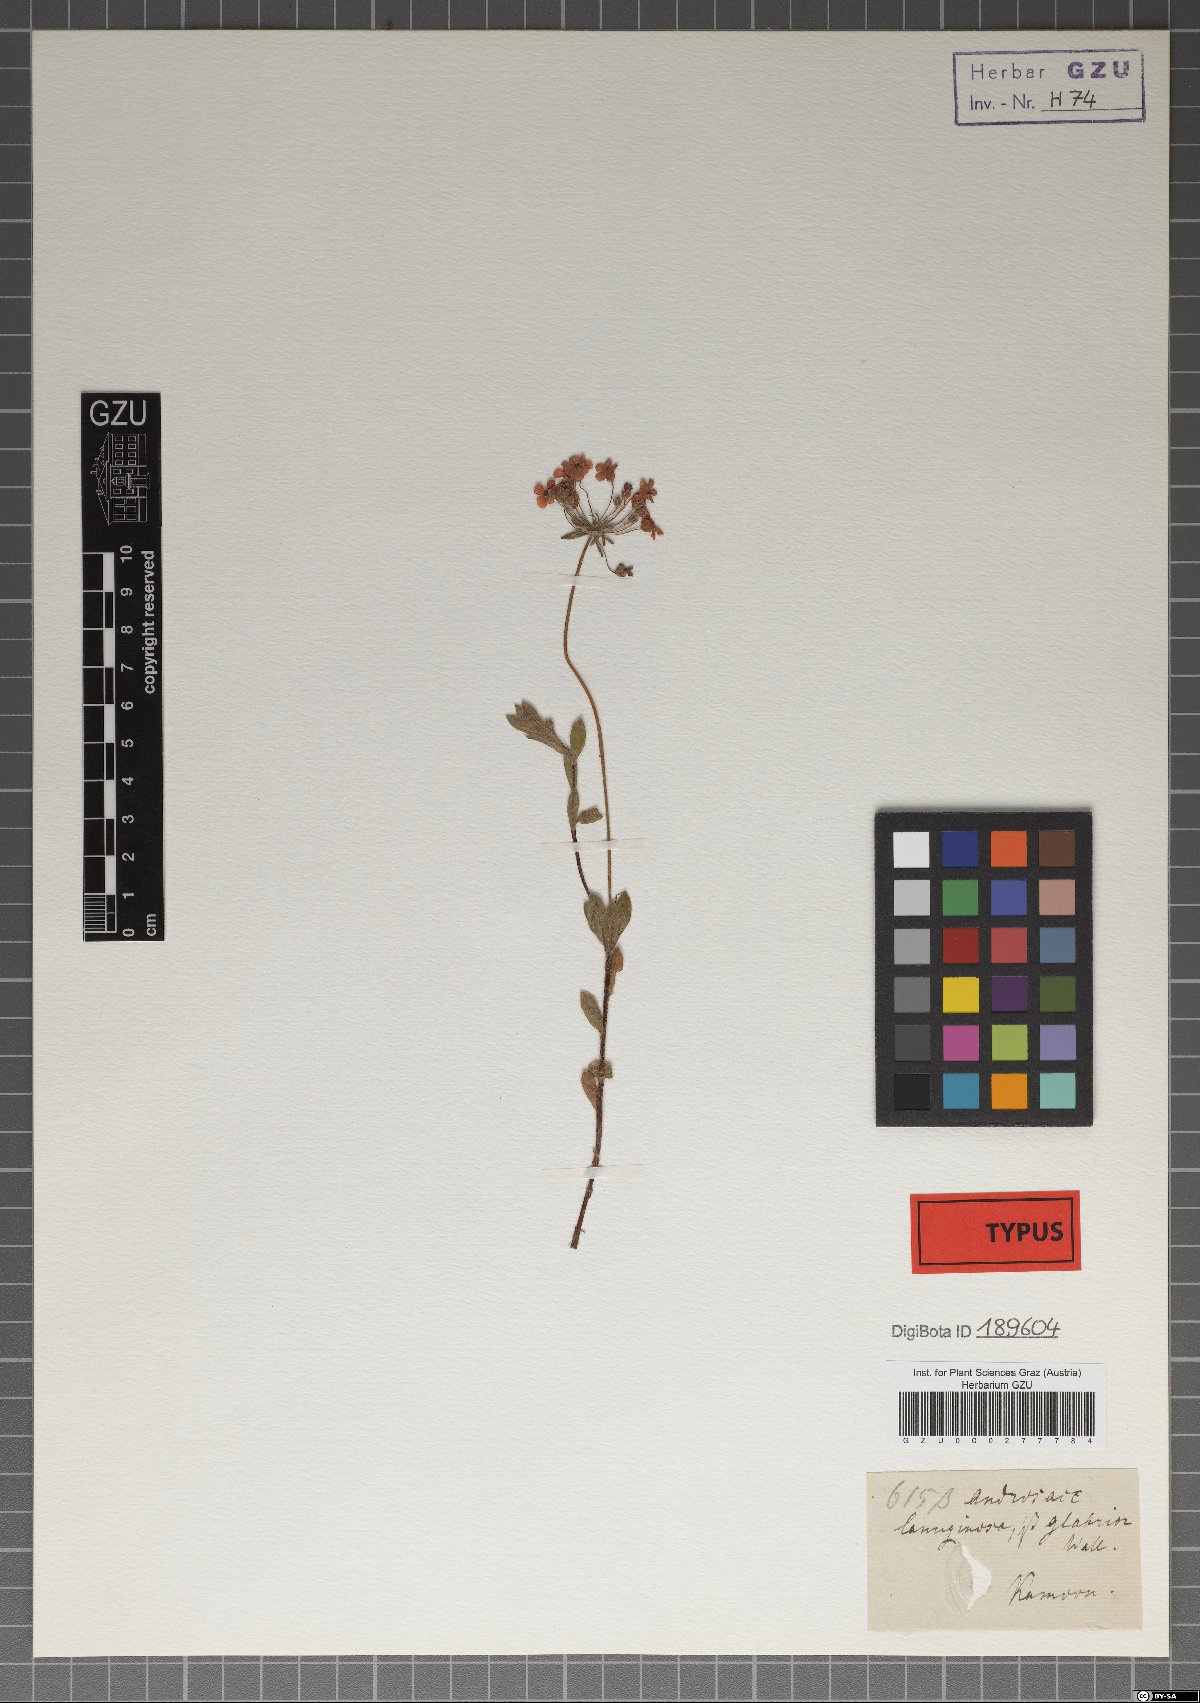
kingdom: Plantae
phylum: Tracheophyta
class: Magnoliopsida
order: Ericales
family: Primulaceae
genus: Androsace
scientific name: Androsace lanuginosa
